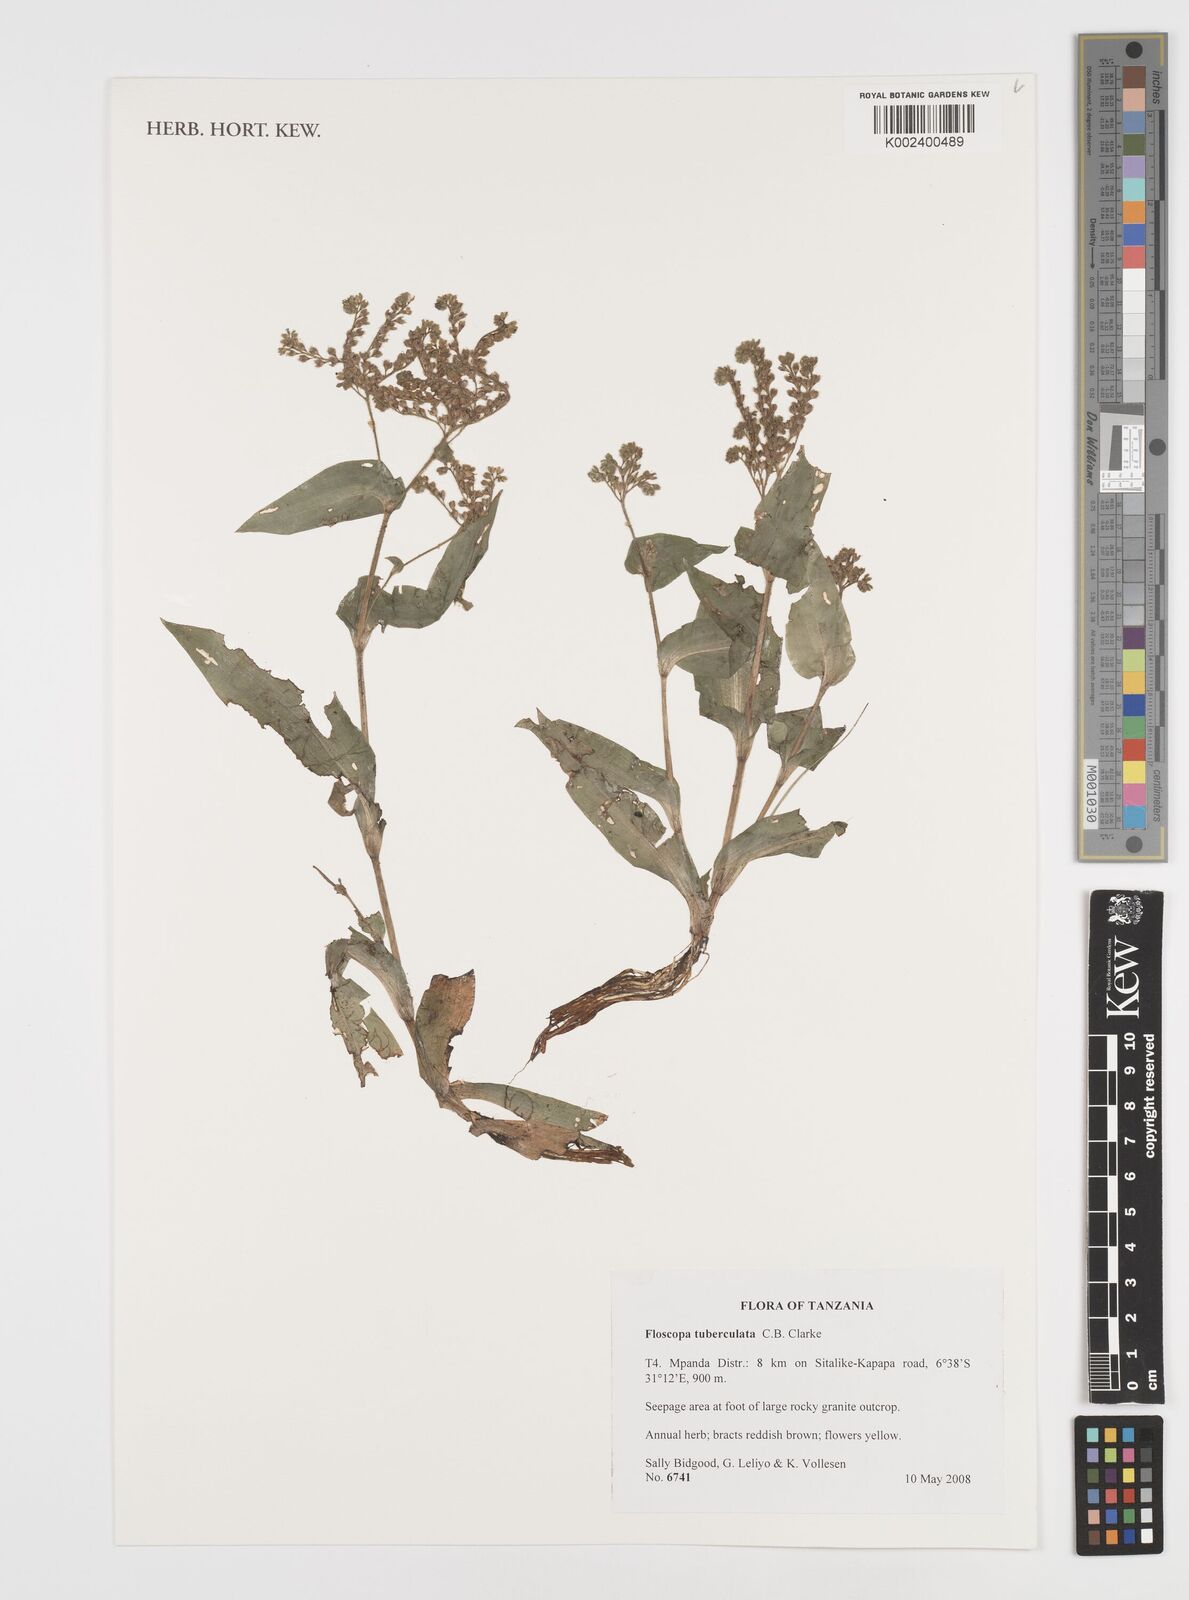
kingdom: Plantae
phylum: Tracheophyta
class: Liliopsida
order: Commelinales
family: Commelinaceae
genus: Floscopa
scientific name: Floscopa tuberculata
